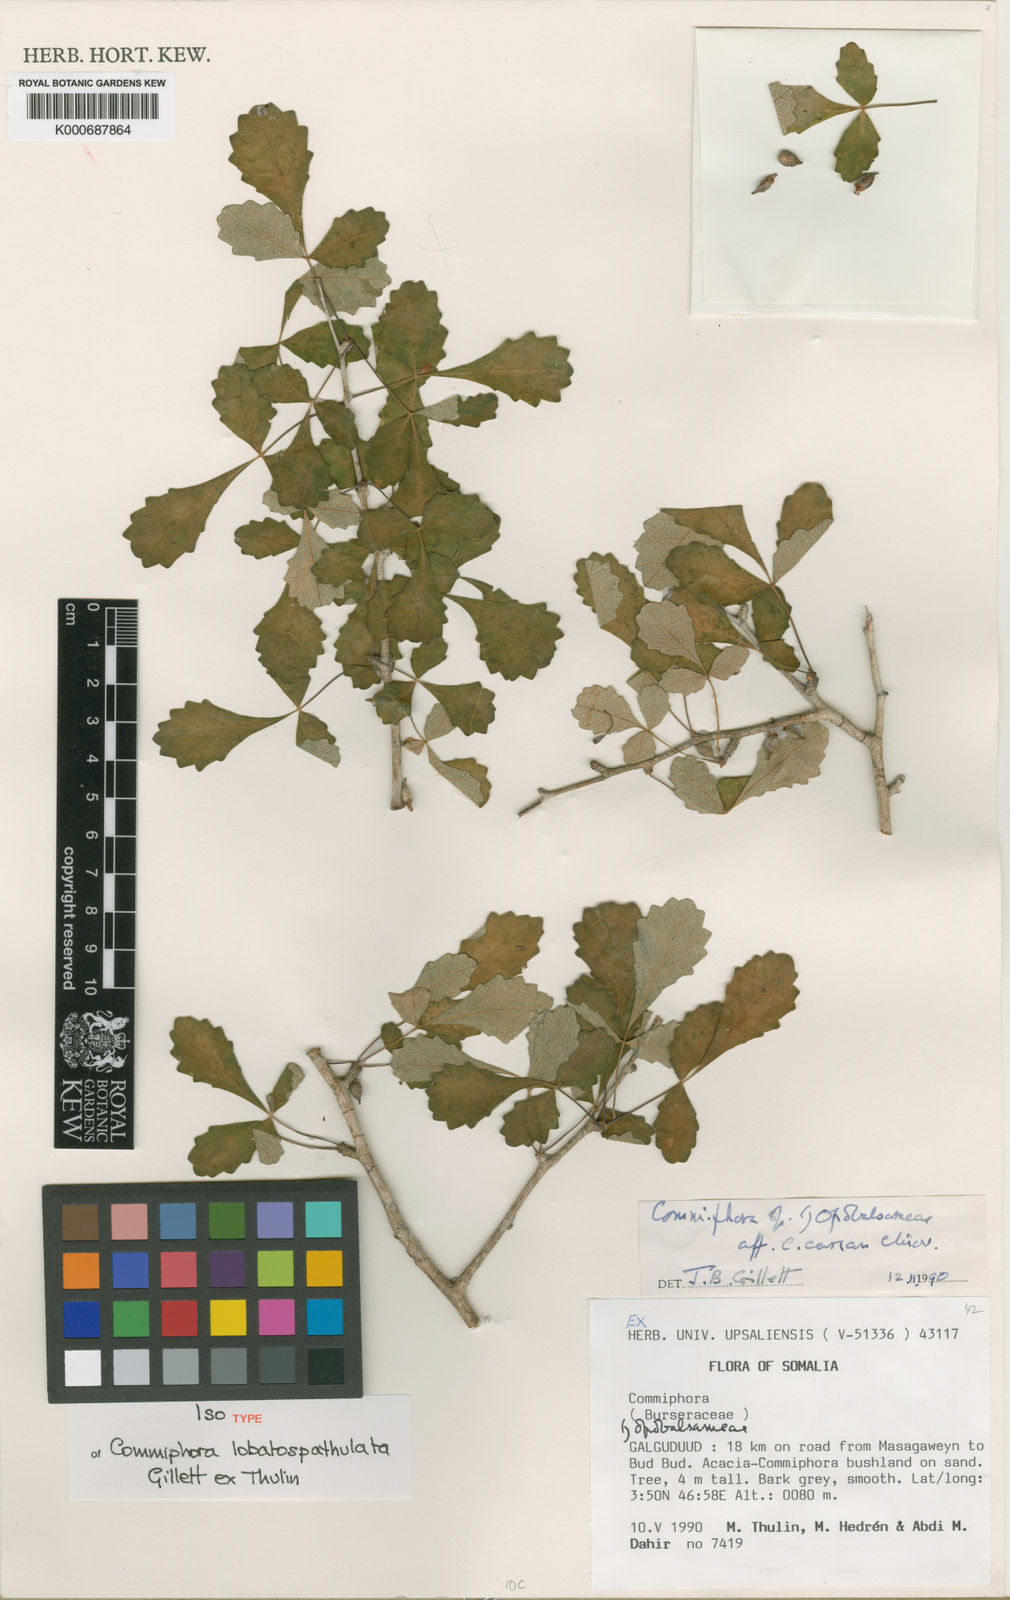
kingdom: Plantae
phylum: Tracheophyta
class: Magnoliopsida
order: Sapindales
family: Burseraceae
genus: Commiphora
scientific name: Commiphora lobatospathulata
